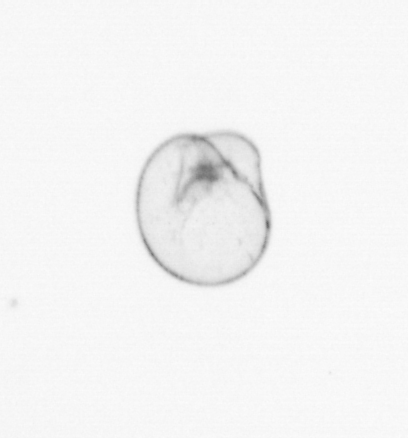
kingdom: Chromista
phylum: Myzozoa
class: Dinophyceae
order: Noctilucales
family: Noctilucaceae
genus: Noctiluca
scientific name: Noctiluca scintillans
